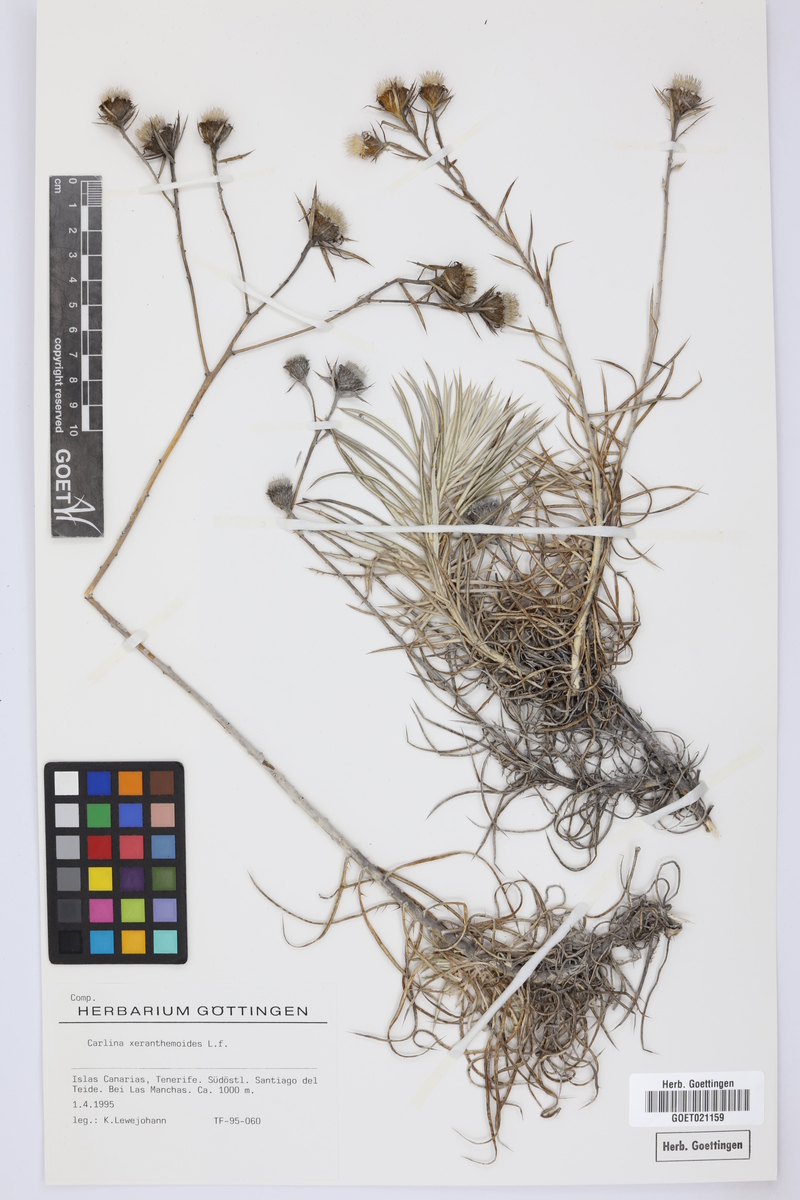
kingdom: Plantae
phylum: Tracheophyta
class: Magnoliopsida
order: Asterales
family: Asteraceae
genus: Carlina
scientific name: Carlina xeranthemoides
